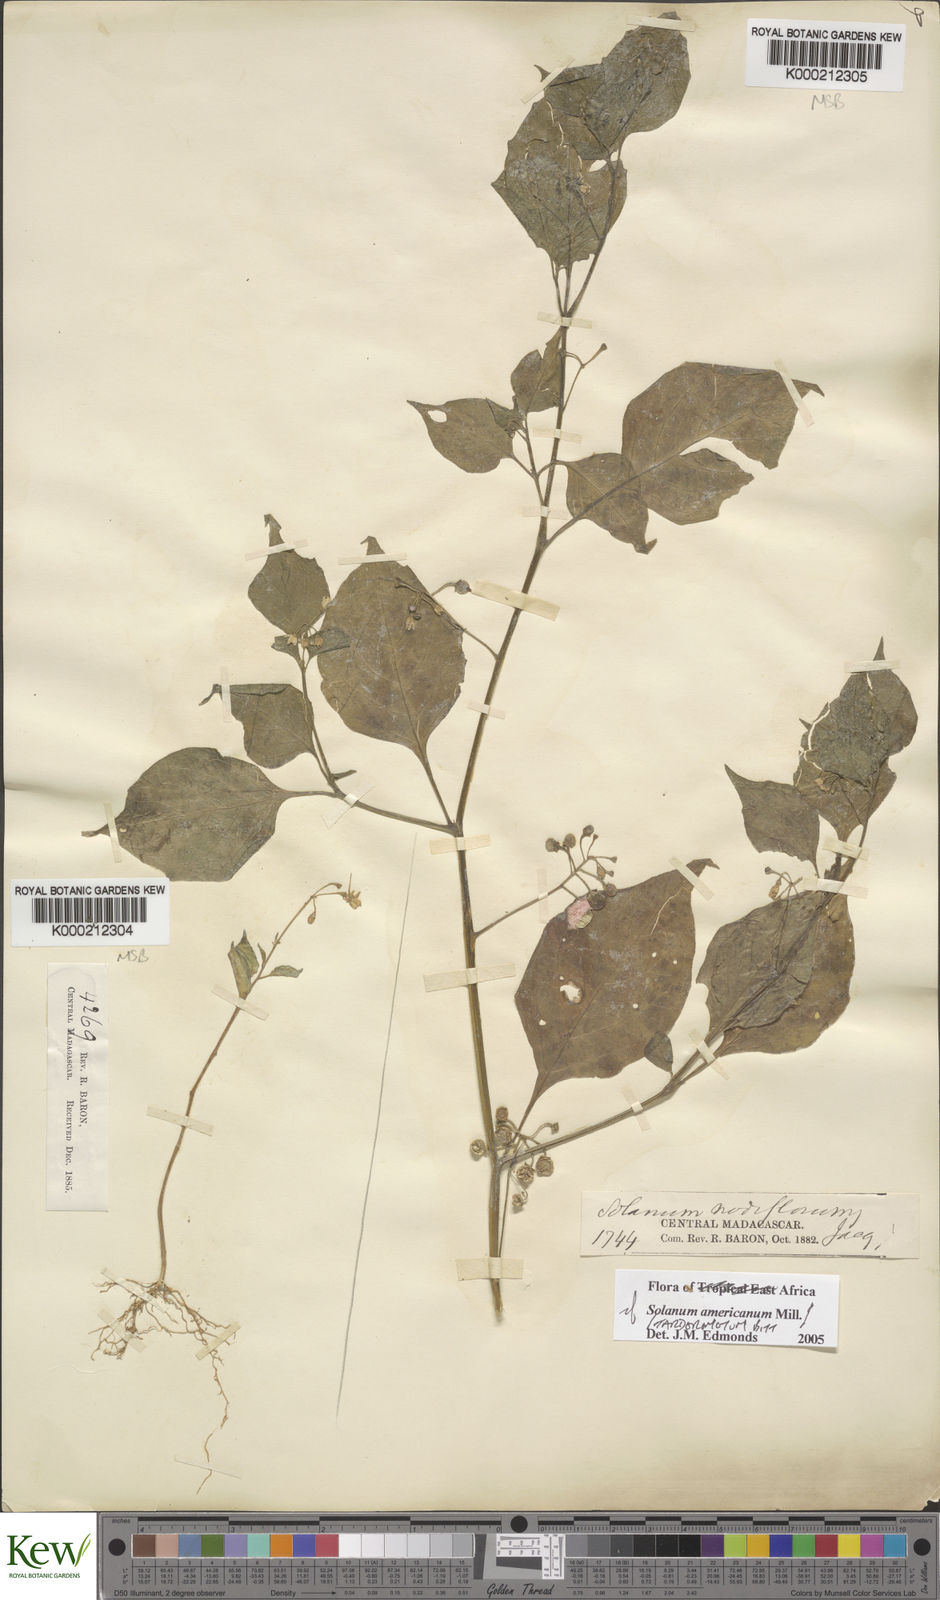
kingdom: Plantae
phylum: Tracheophyta
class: Magnoliopsida
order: Solanales
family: Solanaceae
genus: Solanum
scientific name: Solanum americanum
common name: American black nightshade
